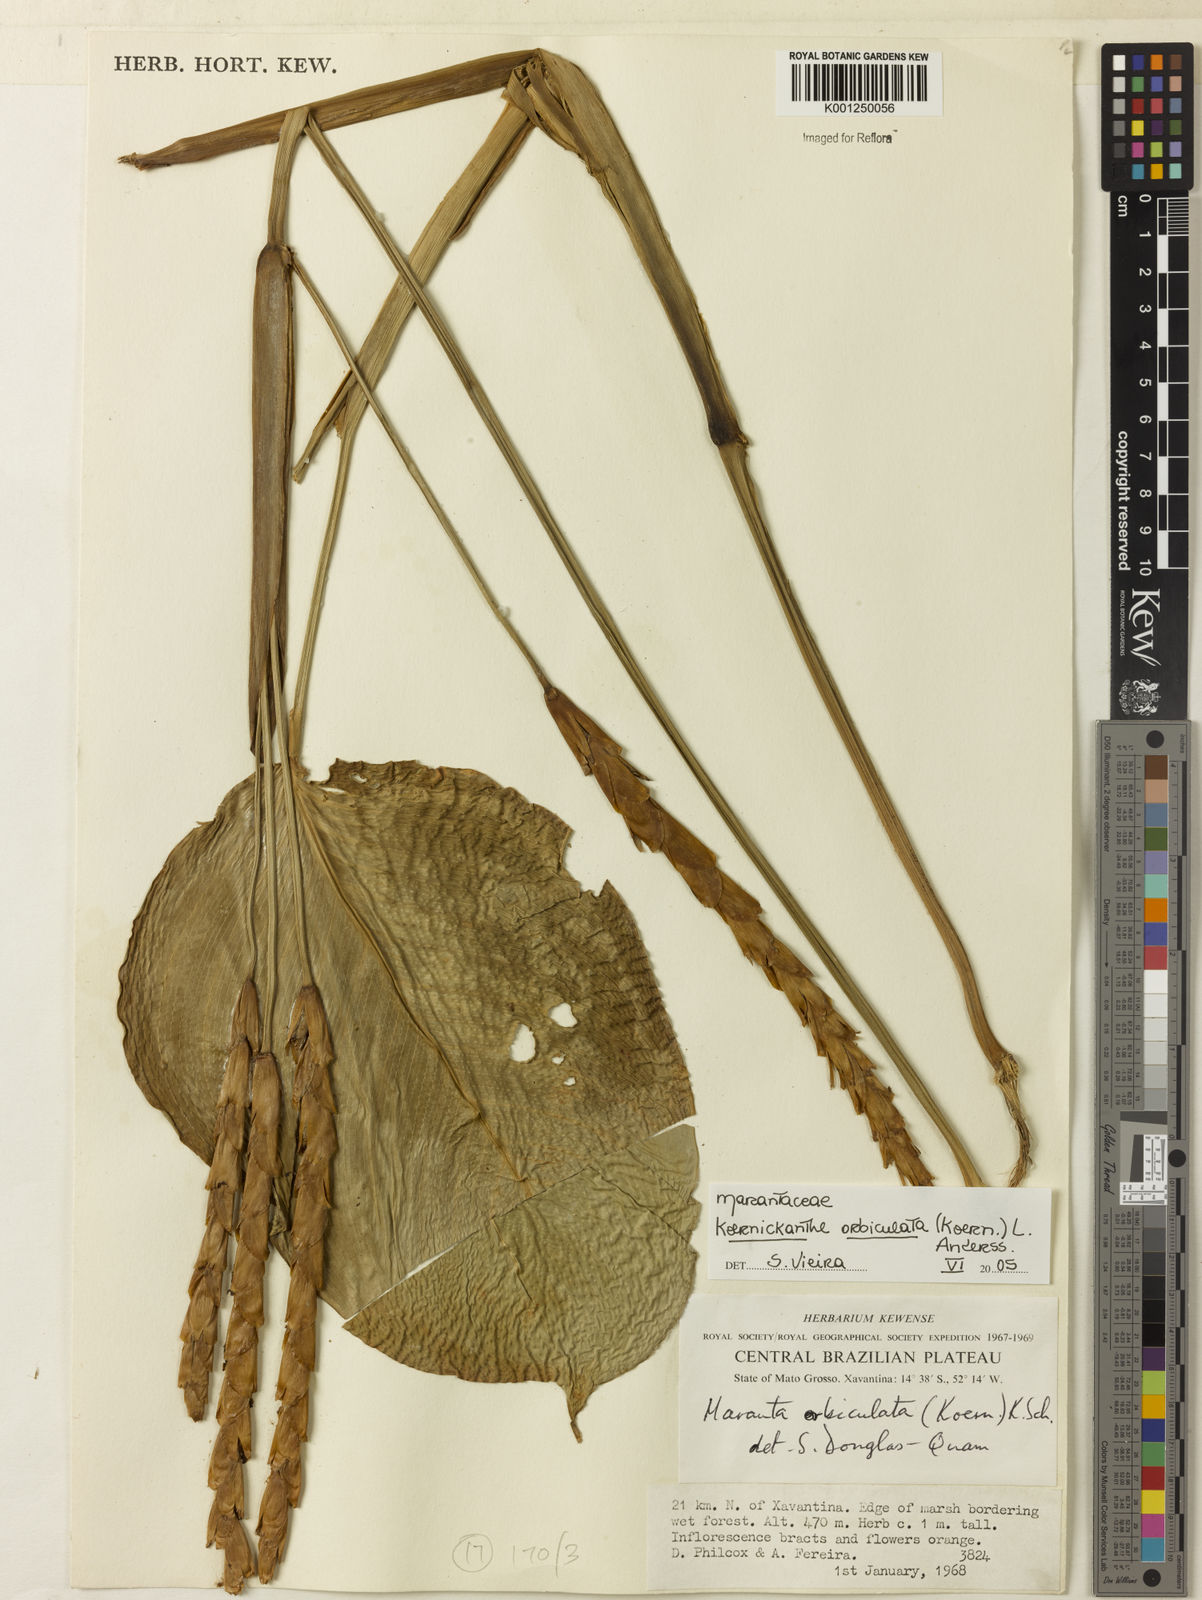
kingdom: Plantae
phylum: Tracheophyta
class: Liliopsida
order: Zingiberales
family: Marantaceae
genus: Koernickanthe
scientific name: Koernickanthe orbiculata
